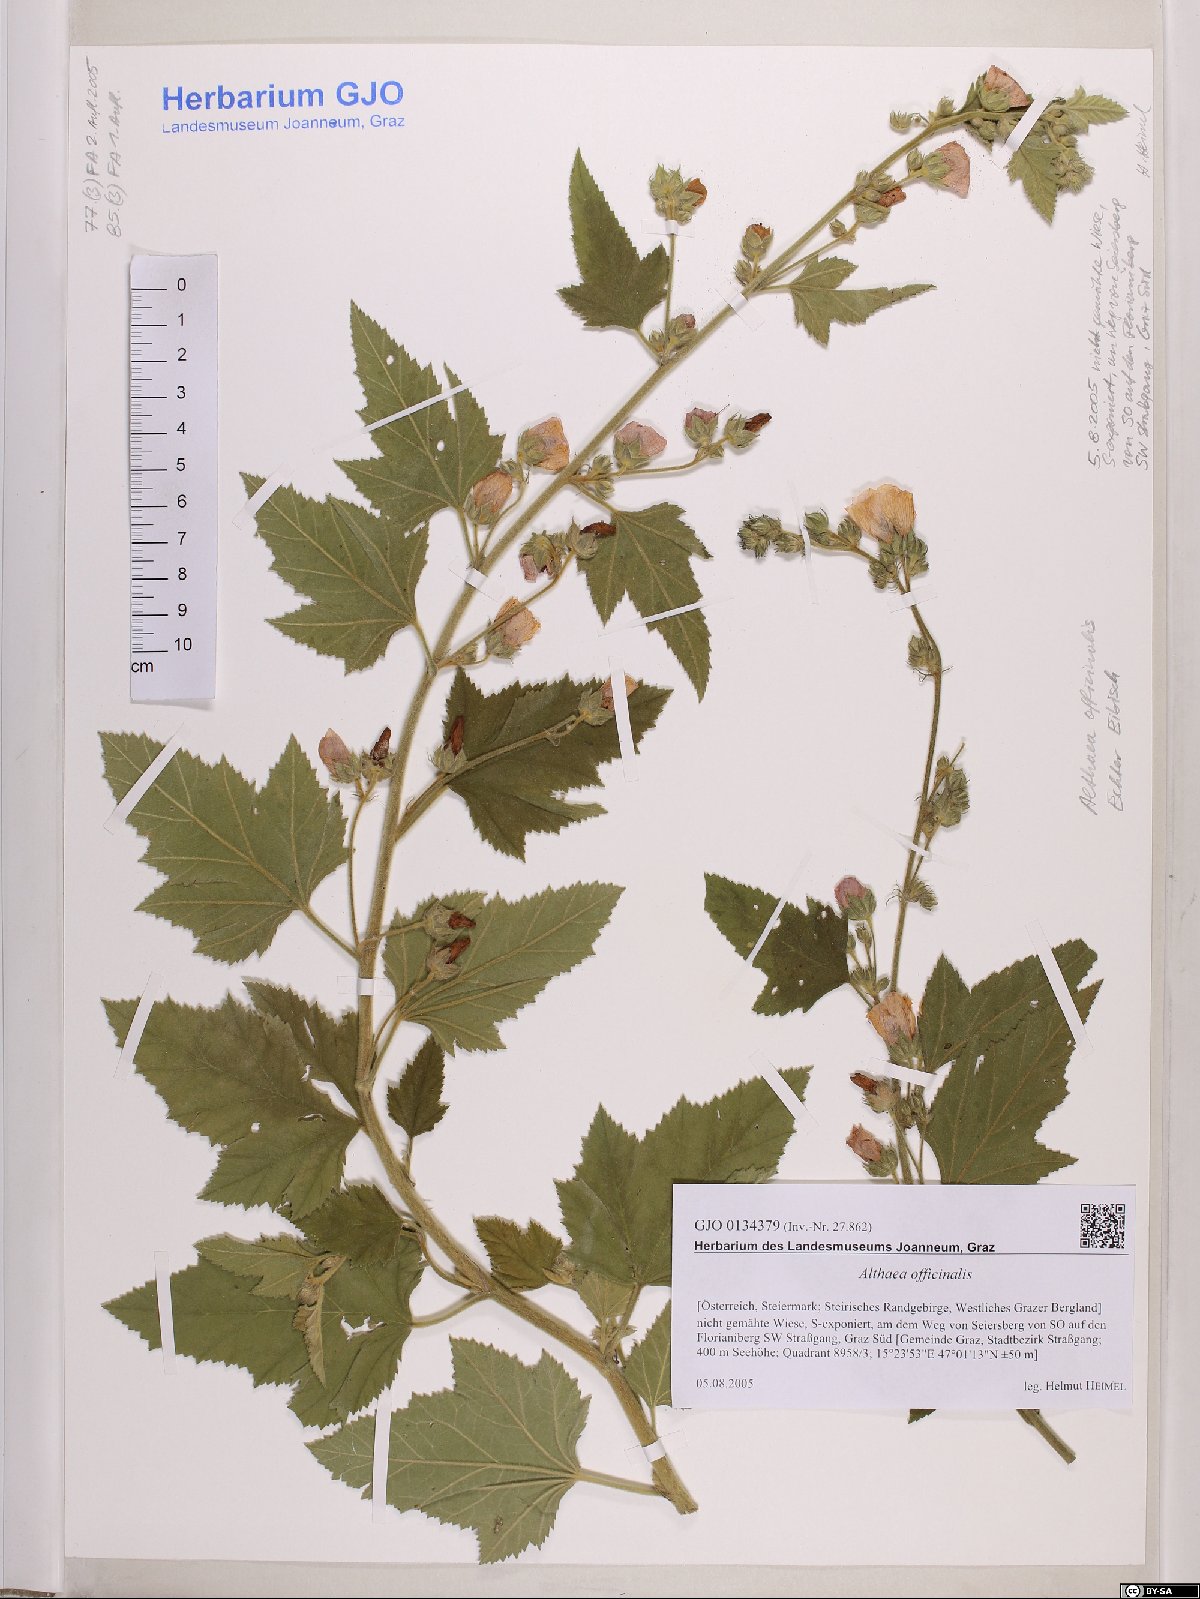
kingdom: Plantae
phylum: Tracheophyta
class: Magnoliopsida
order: Malvales
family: Malvaceae
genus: Althaea
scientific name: Althaea officinalis
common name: Marsh-mallow
